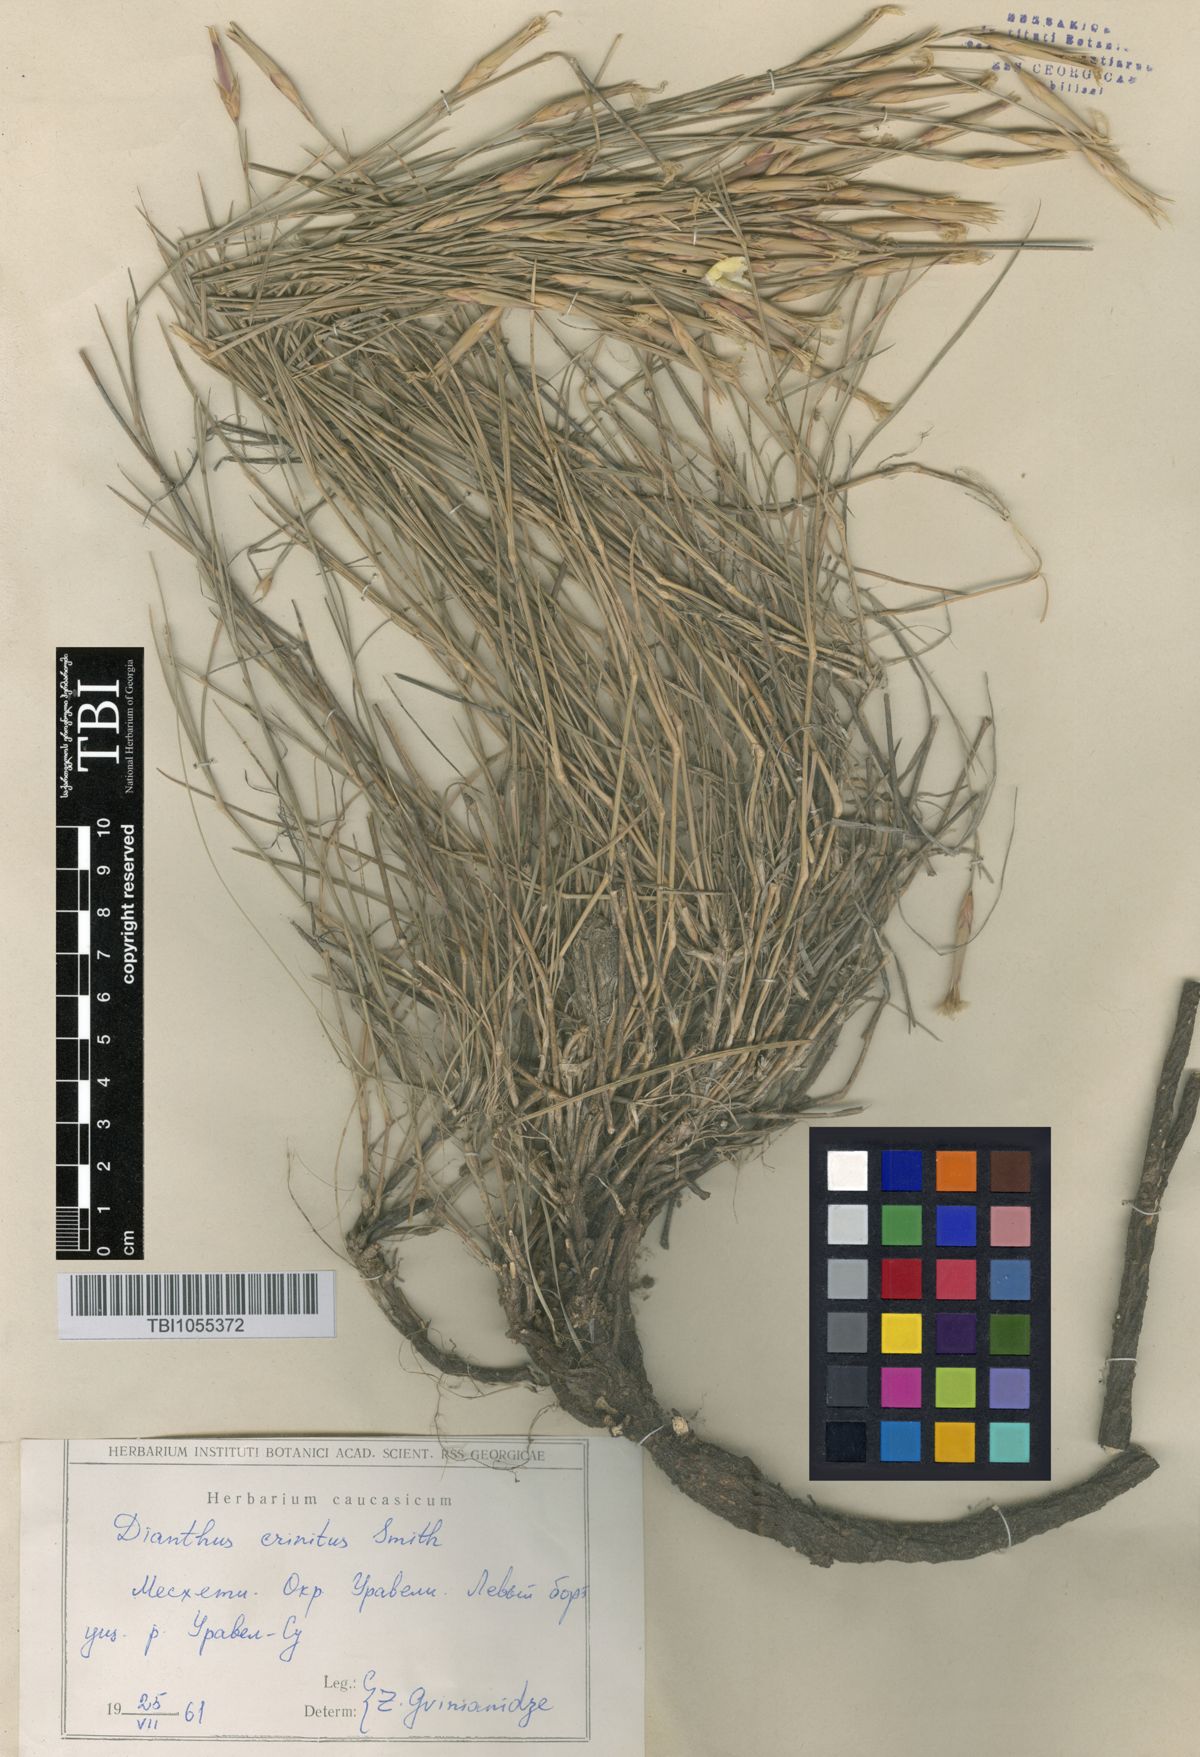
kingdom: Plantae
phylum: Tracheophyta
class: Magnoliopsida
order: Caryophyllales
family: Caryophyllaceae
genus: Dianthus
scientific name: Dianthus crinitus
